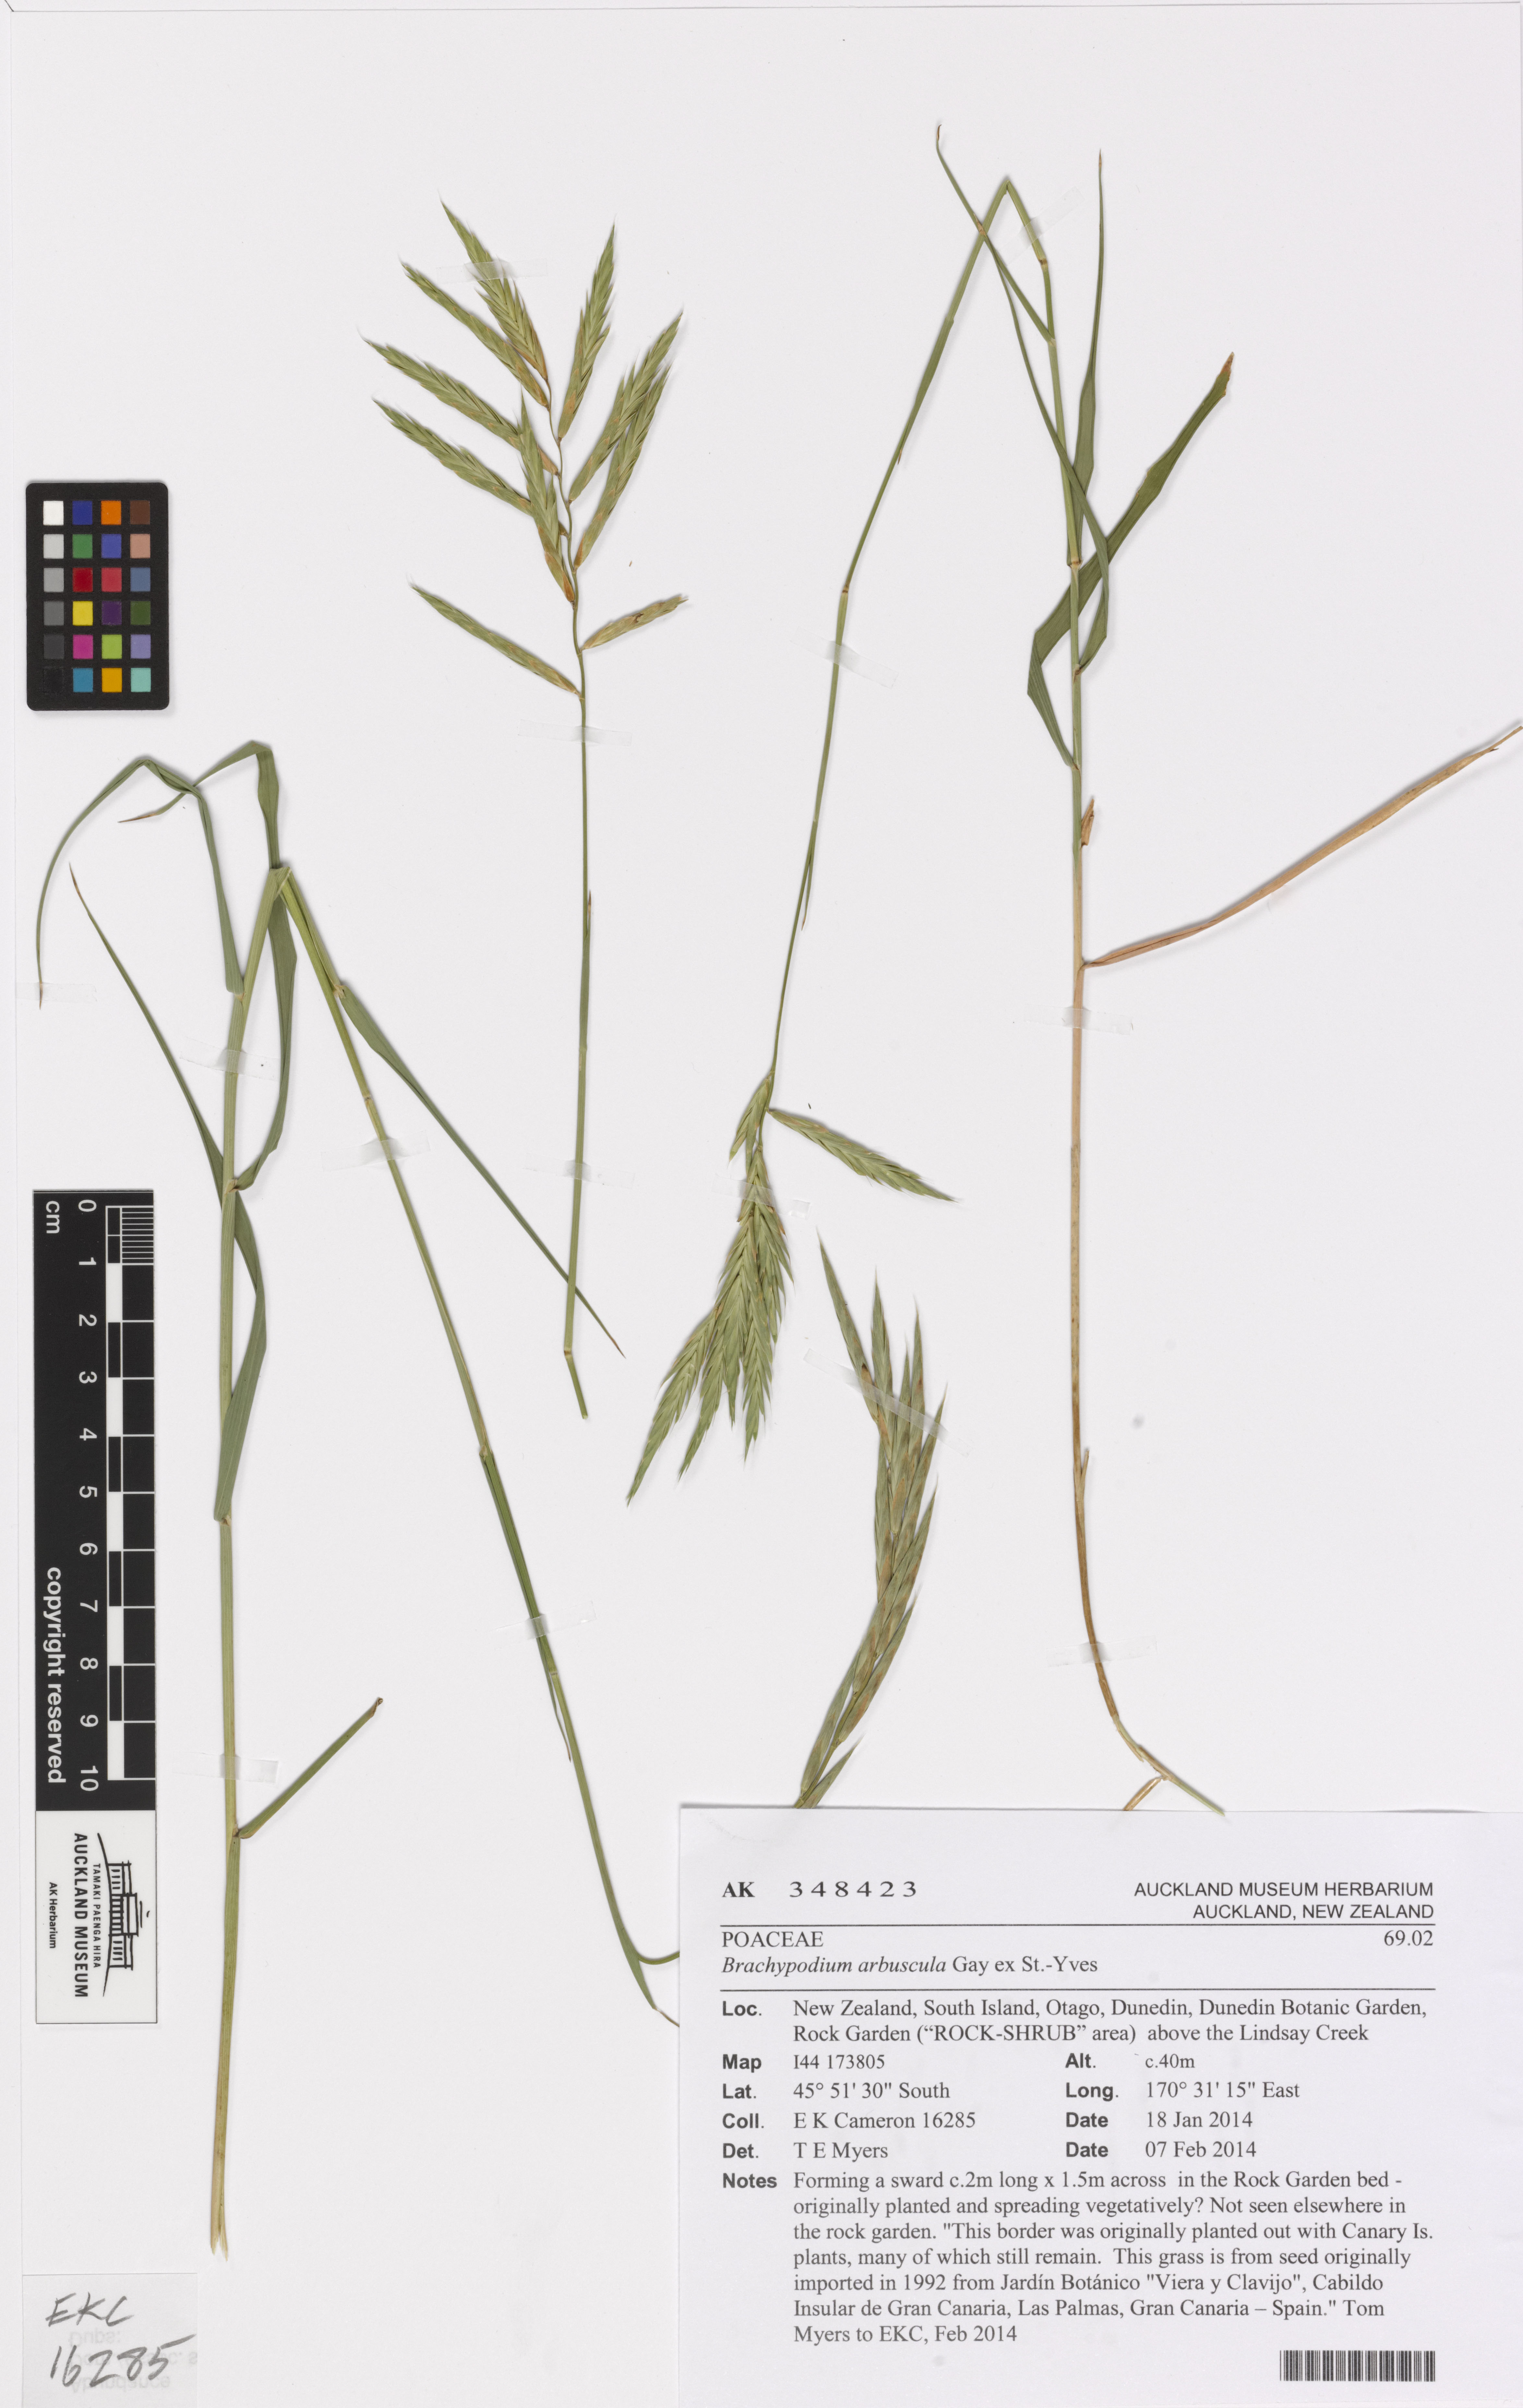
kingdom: Plantae
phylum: Tracheophyta
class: Liliopsida
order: Poales
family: Poaceae
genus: Brachypodium
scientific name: Brachypodium arbuscula
